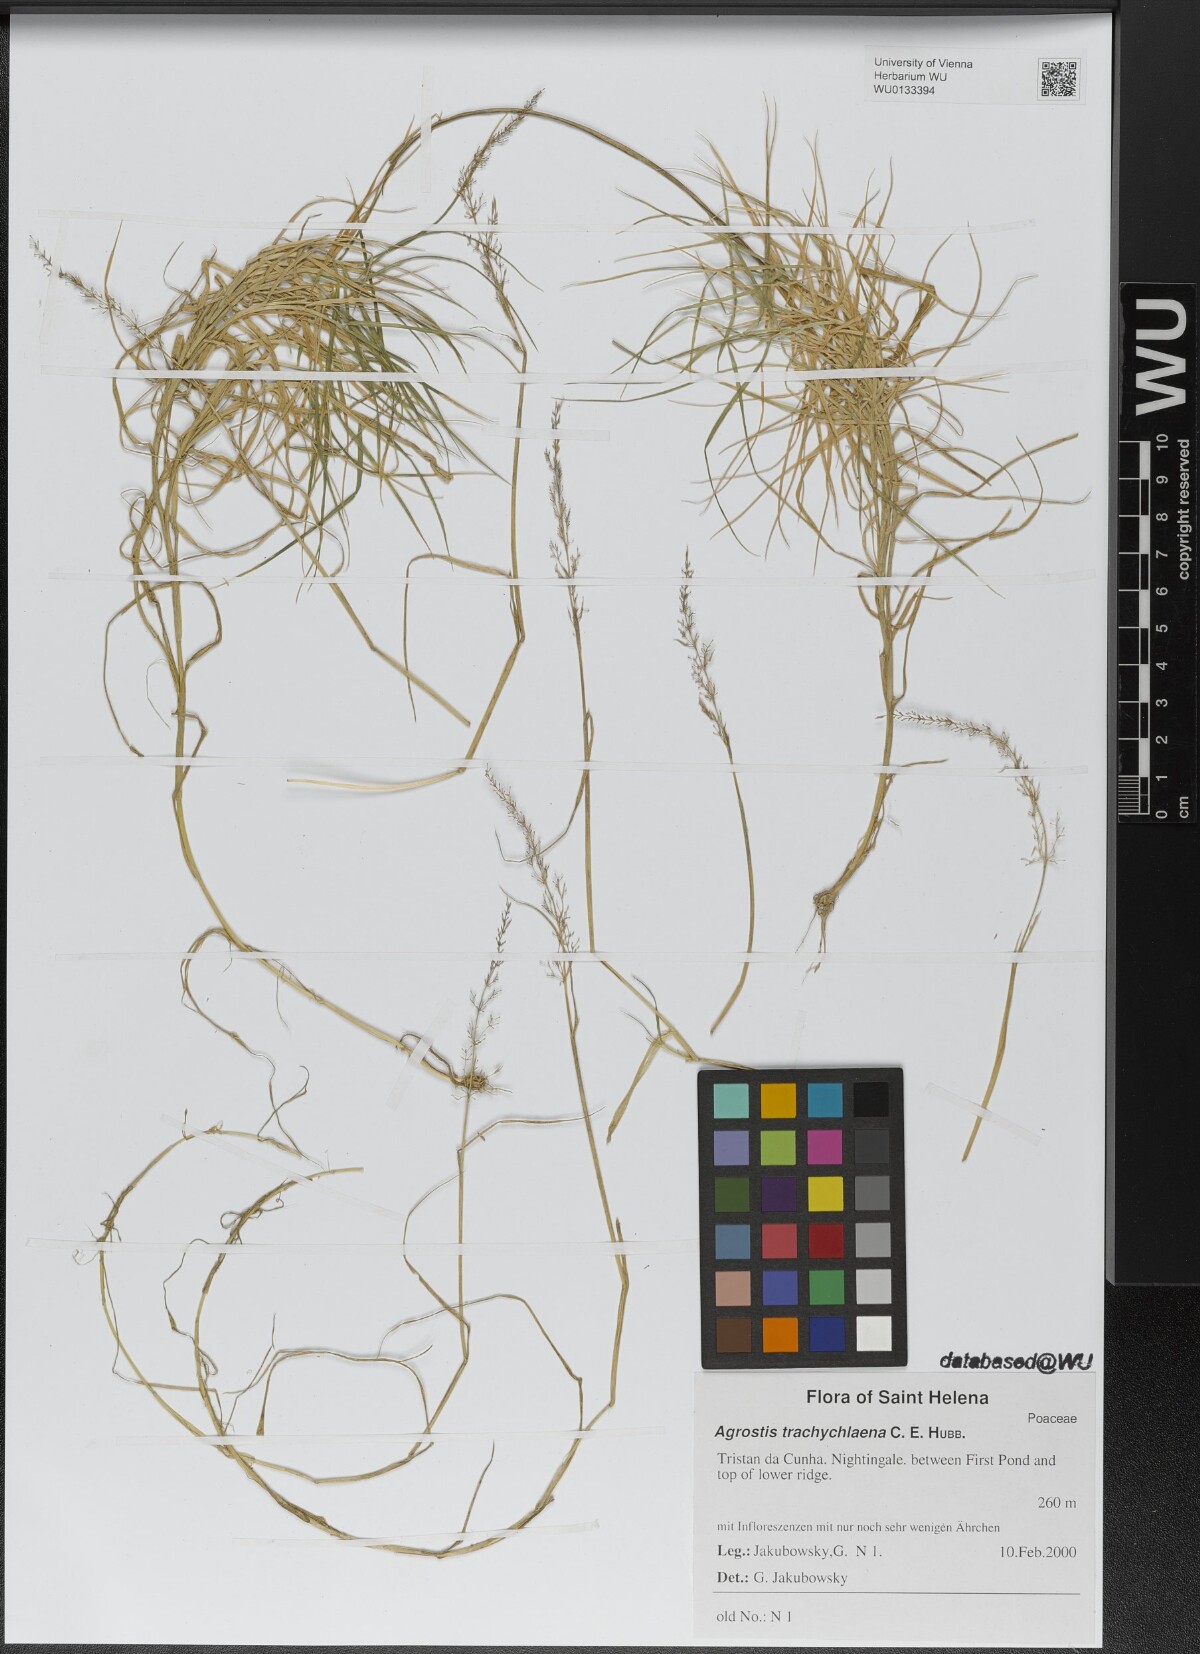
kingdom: Plantae
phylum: Tracheophyta
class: Liliopsida
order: Poales
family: Poaceae
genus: Agrostis
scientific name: Agrostis trachychlaena
